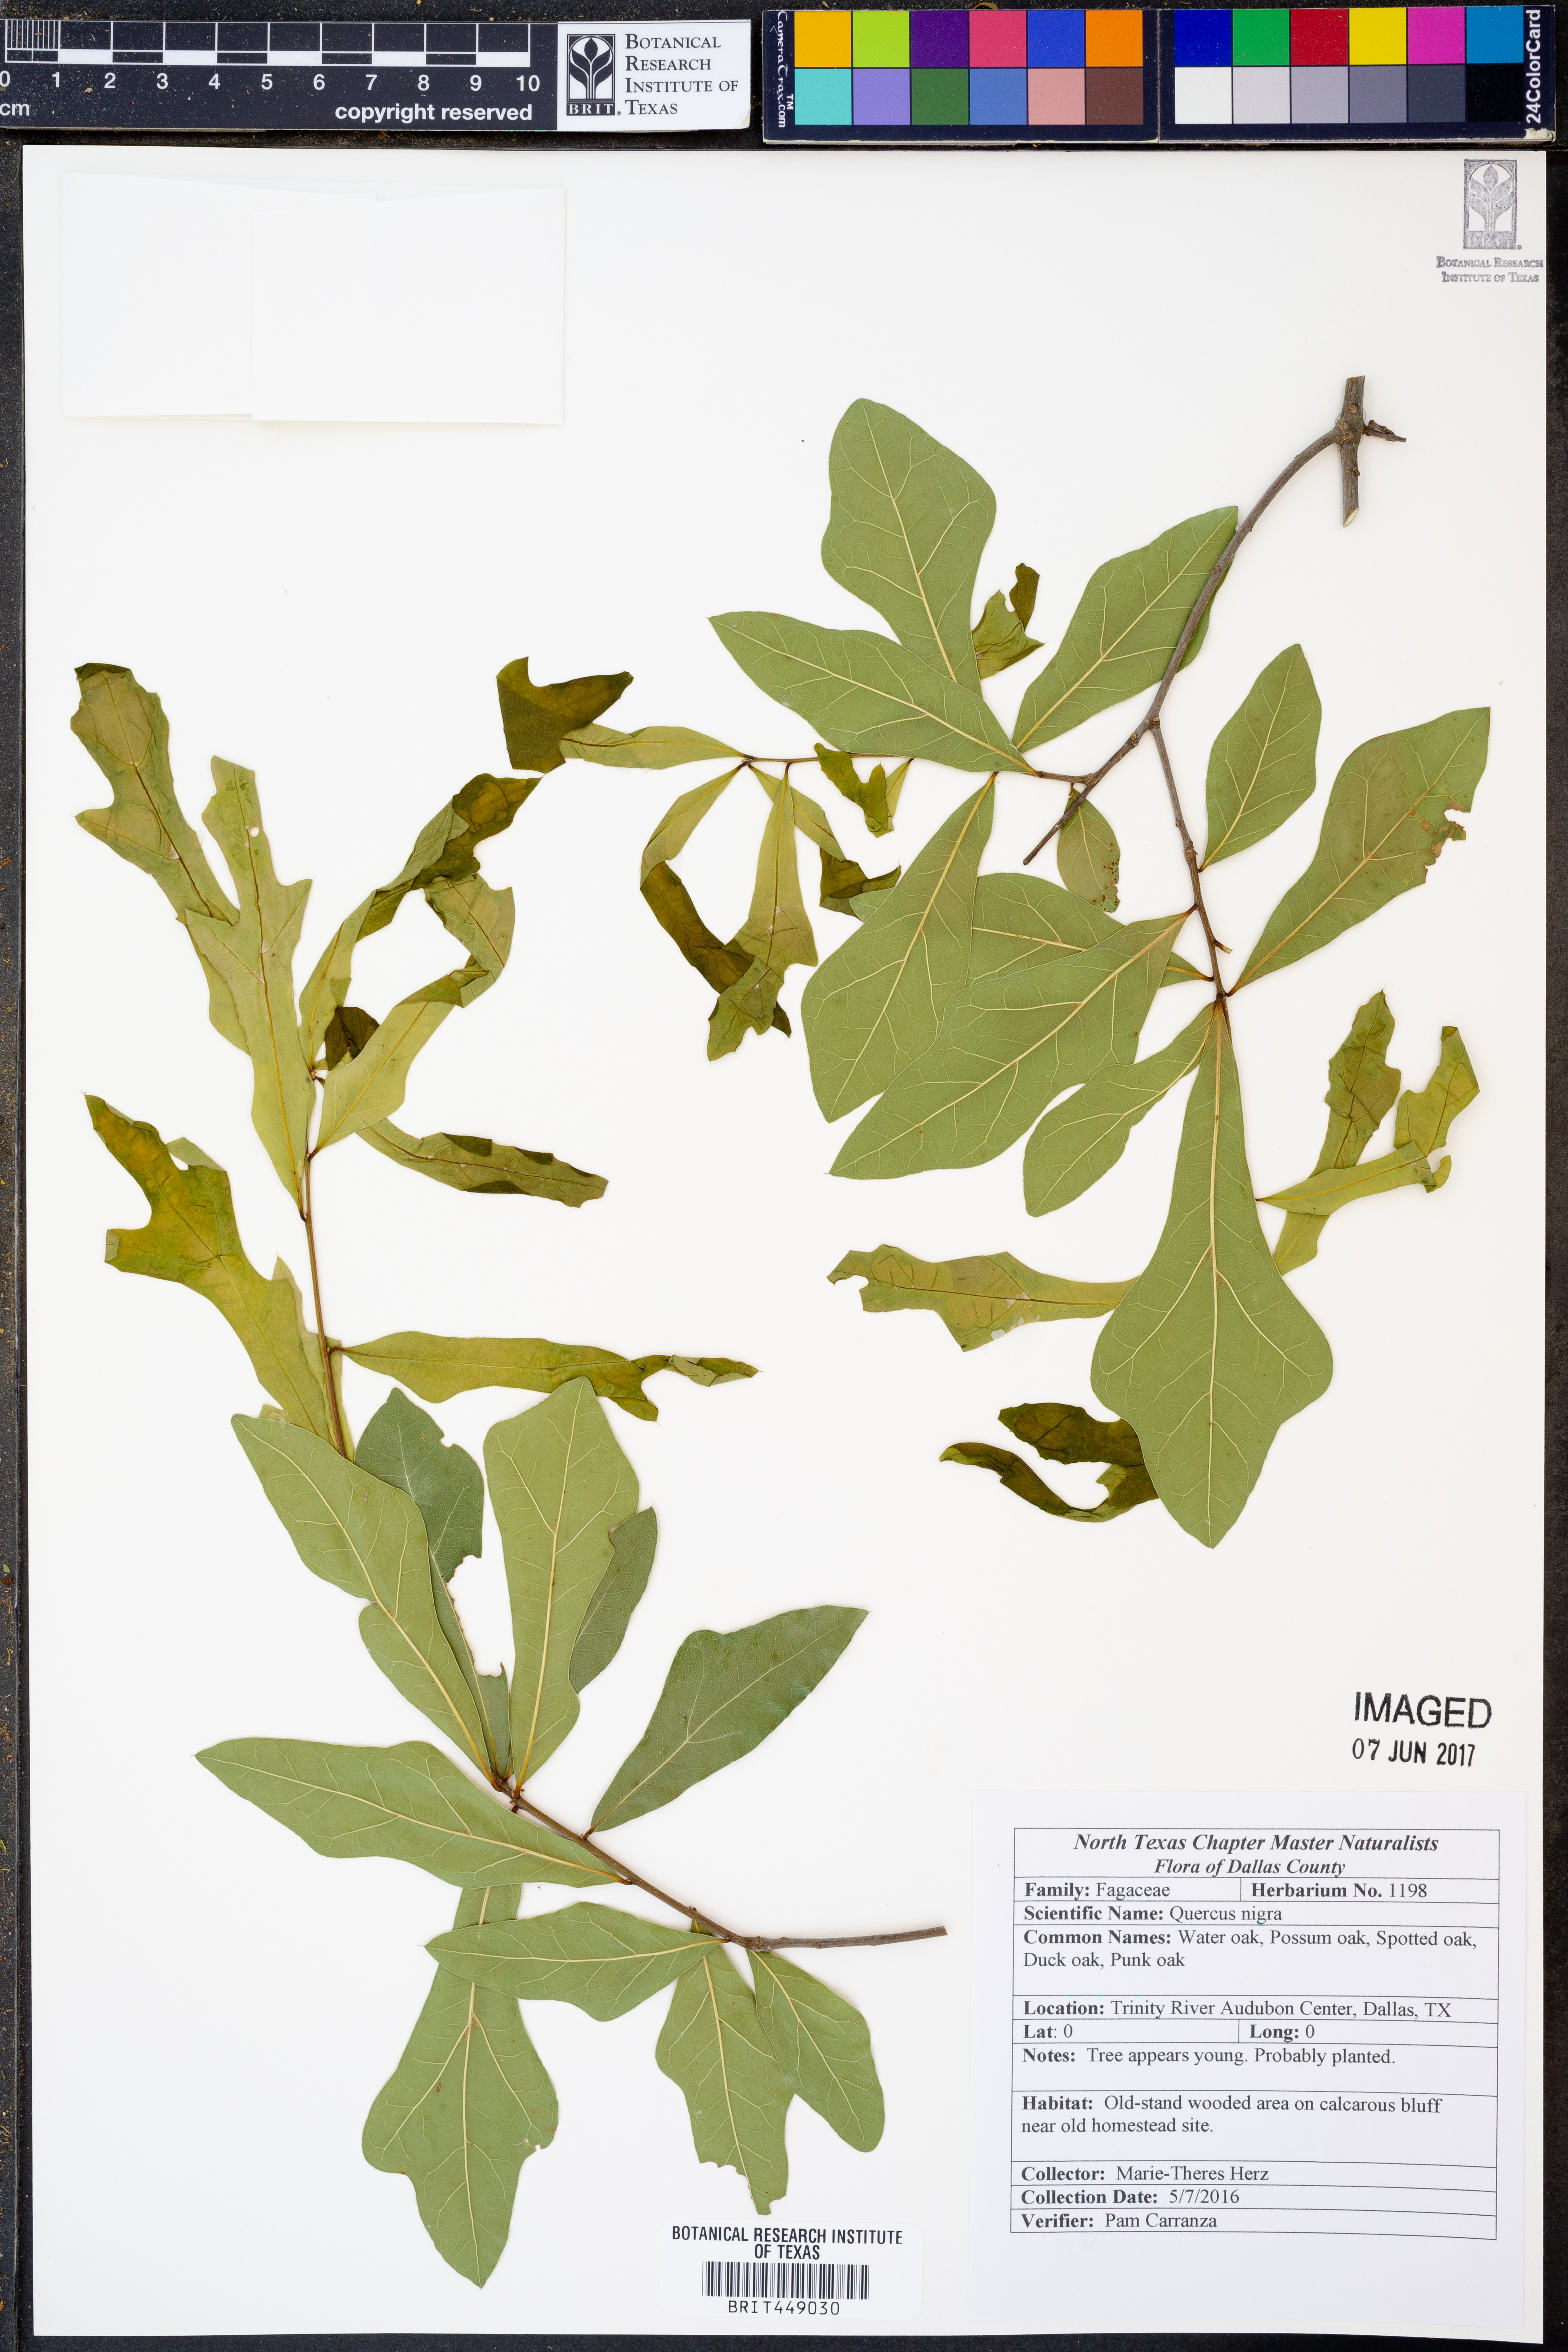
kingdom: Plantae
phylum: Tracheophyta
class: Magnoliopsida
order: Fagales
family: Fagaceae
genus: Quercus
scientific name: Quercus nigra
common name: Water oak
